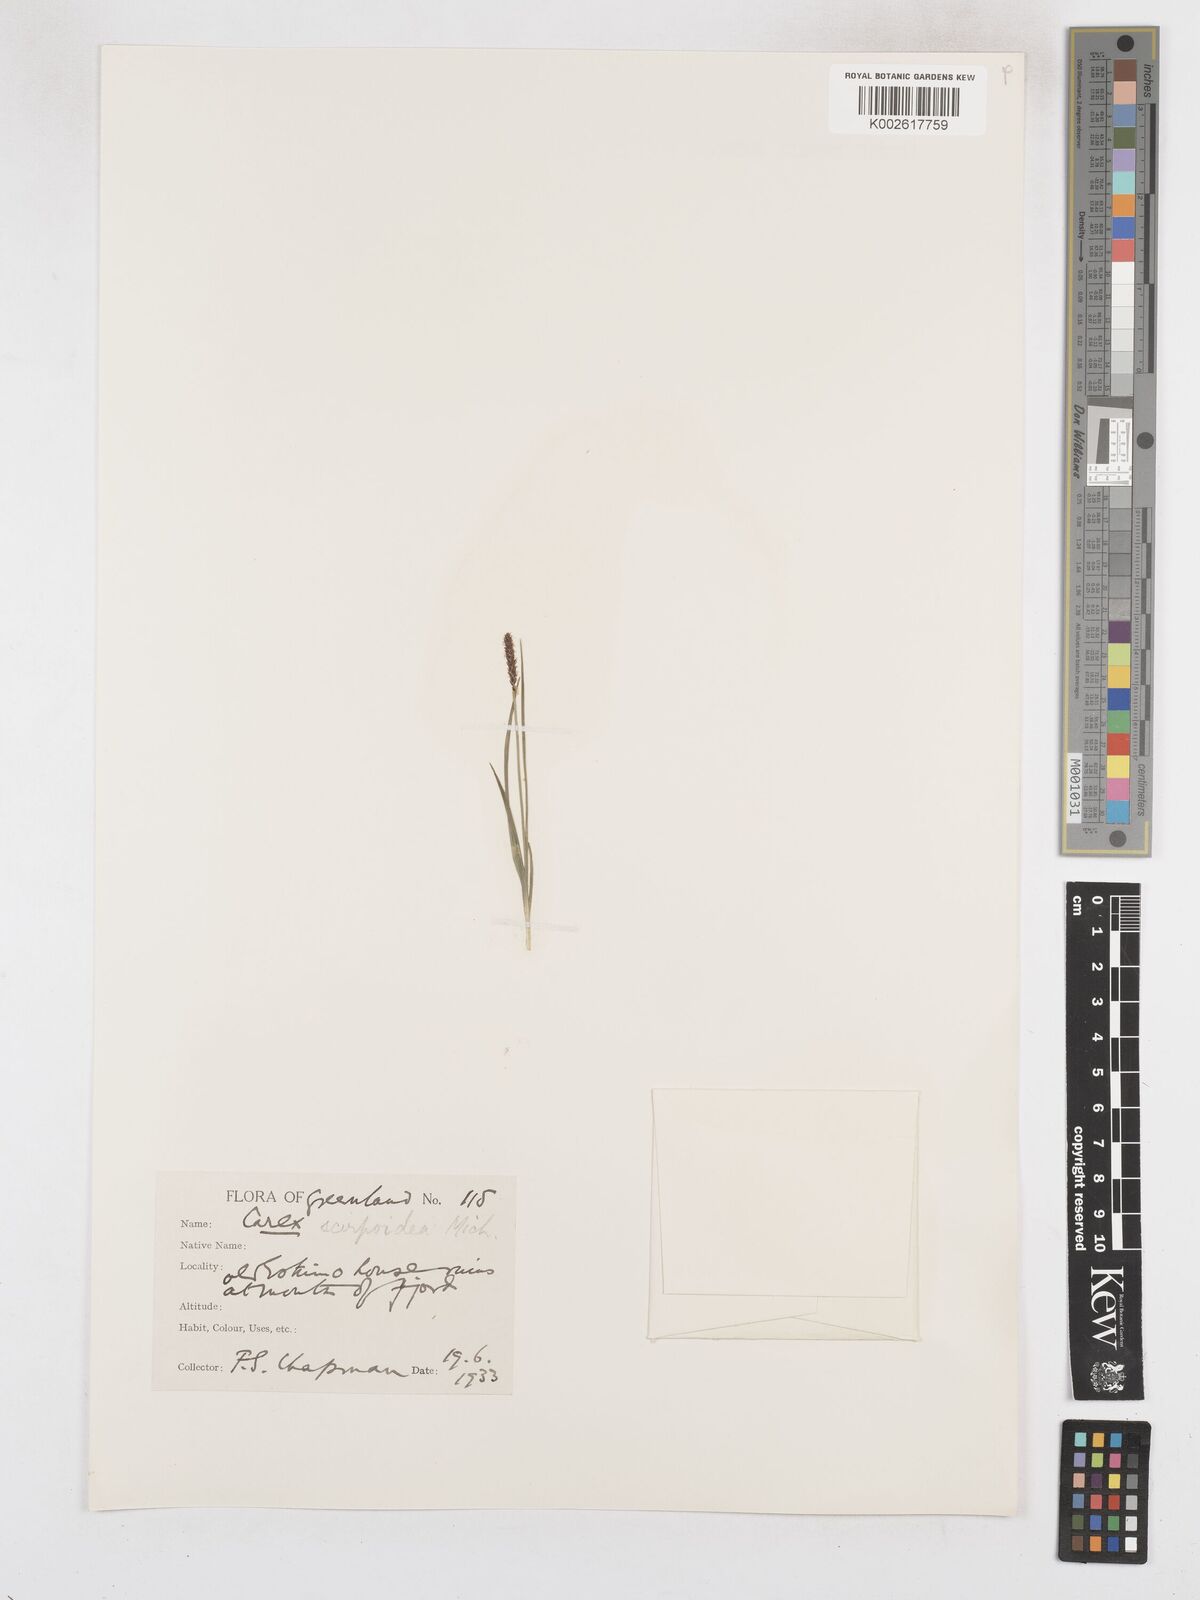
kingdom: Plantae
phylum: Tracheophyta
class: Liliopsida
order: Poales
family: Cyperaceae
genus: Carex
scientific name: Carex scirpoidea
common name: Canada single-spike sedge
